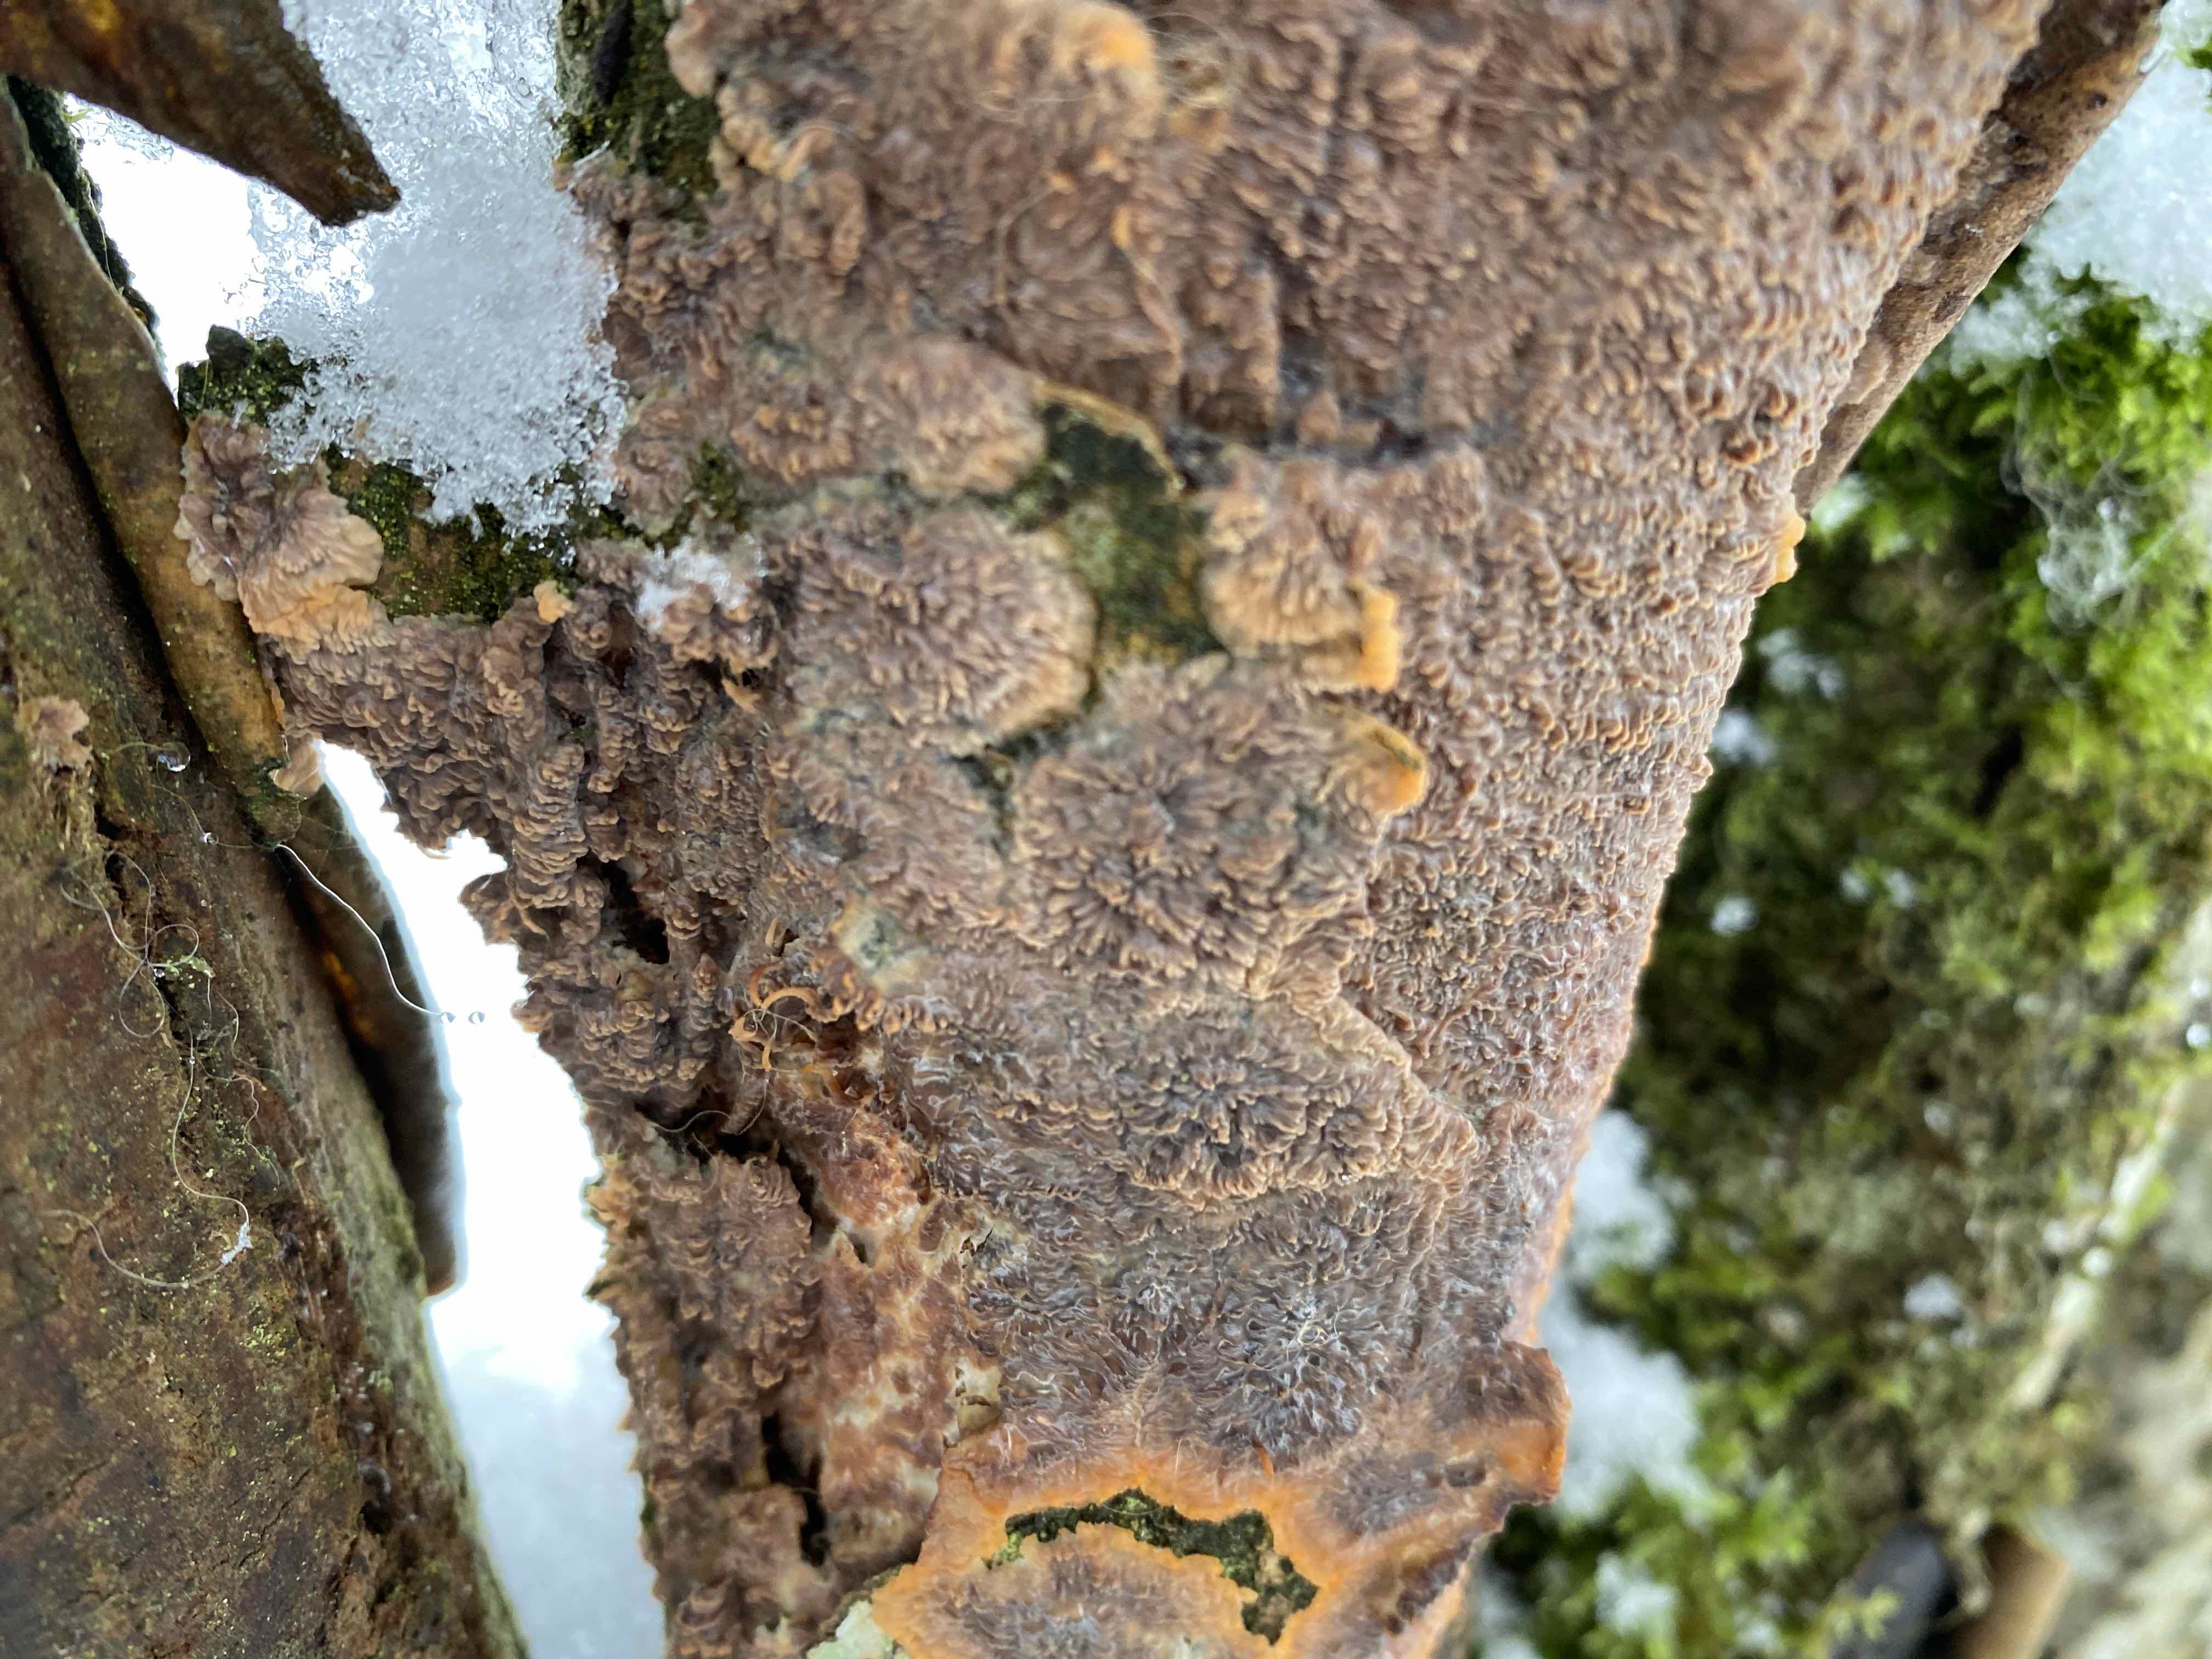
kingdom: Fungi
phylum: Basidiomycota
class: Agaricomycetes
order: Polyporales
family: Meruliaceae
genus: Phlebia
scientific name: Phlebia radiata
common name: stråle-åresvamp
